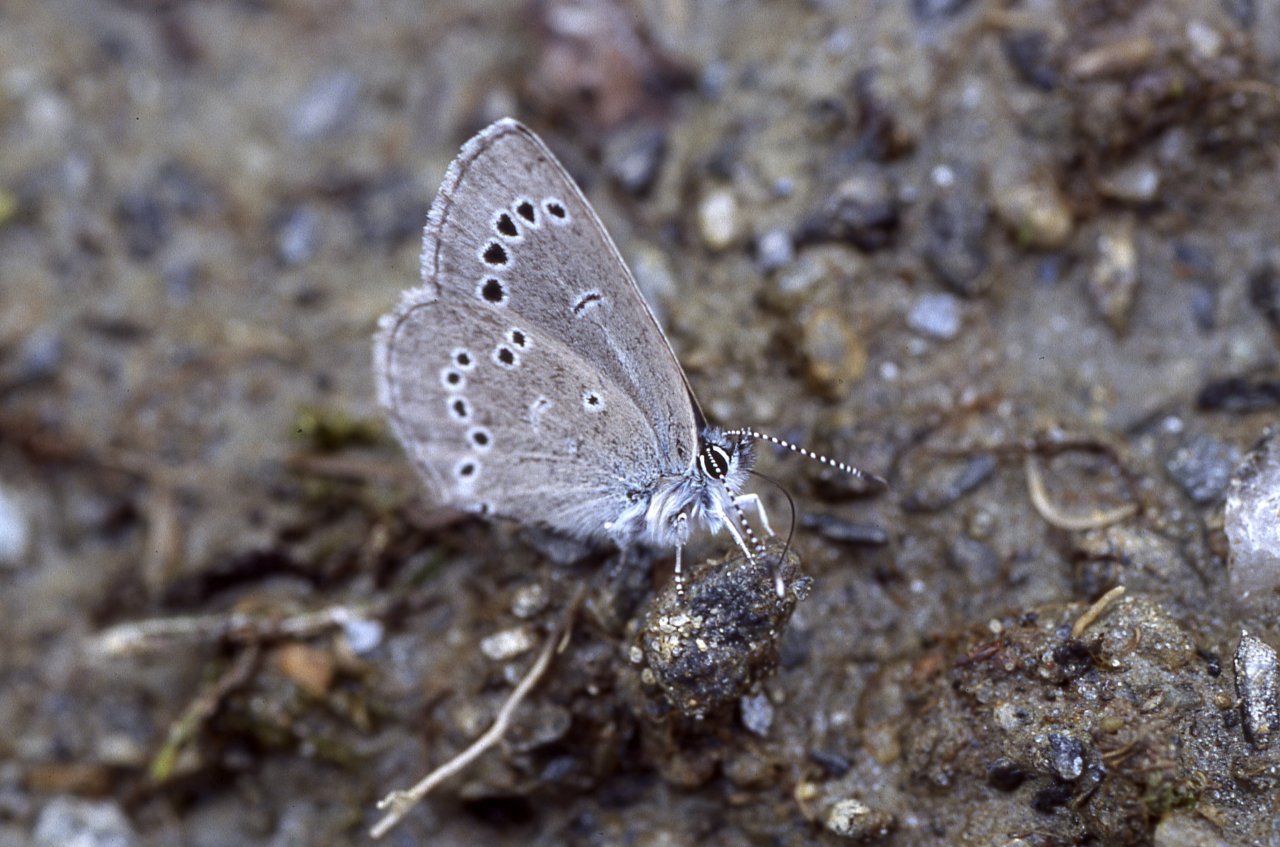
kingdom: Animalia
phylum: Arthropoda
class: Insecta
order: Lepidoptera
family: Lycaenidae
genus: Glaucopsyche
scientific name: Glaucopsyche lygdamus
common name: Silvery Blue
